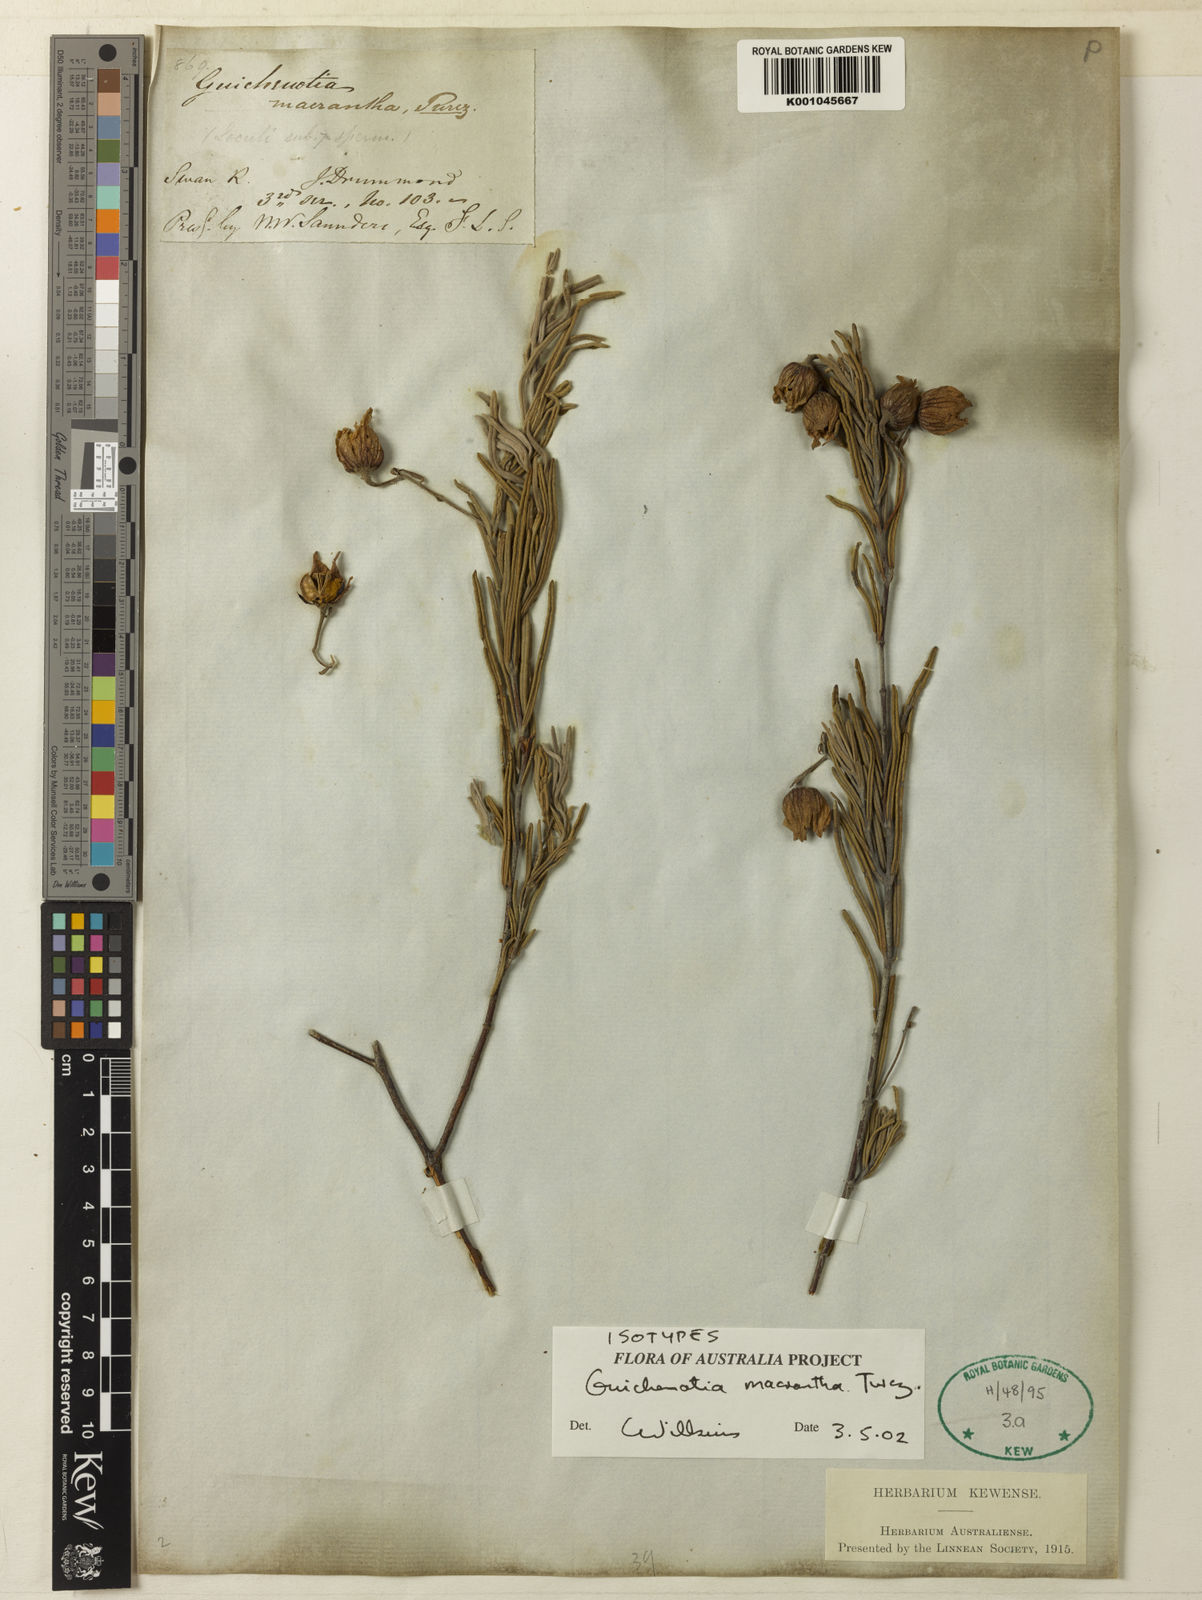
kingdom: Plantae
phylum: Tracheophyta
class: Magnoliopsida
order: Malvales
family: Malvaceae
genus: Guichenotia
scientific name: Guichenotia macrantha
